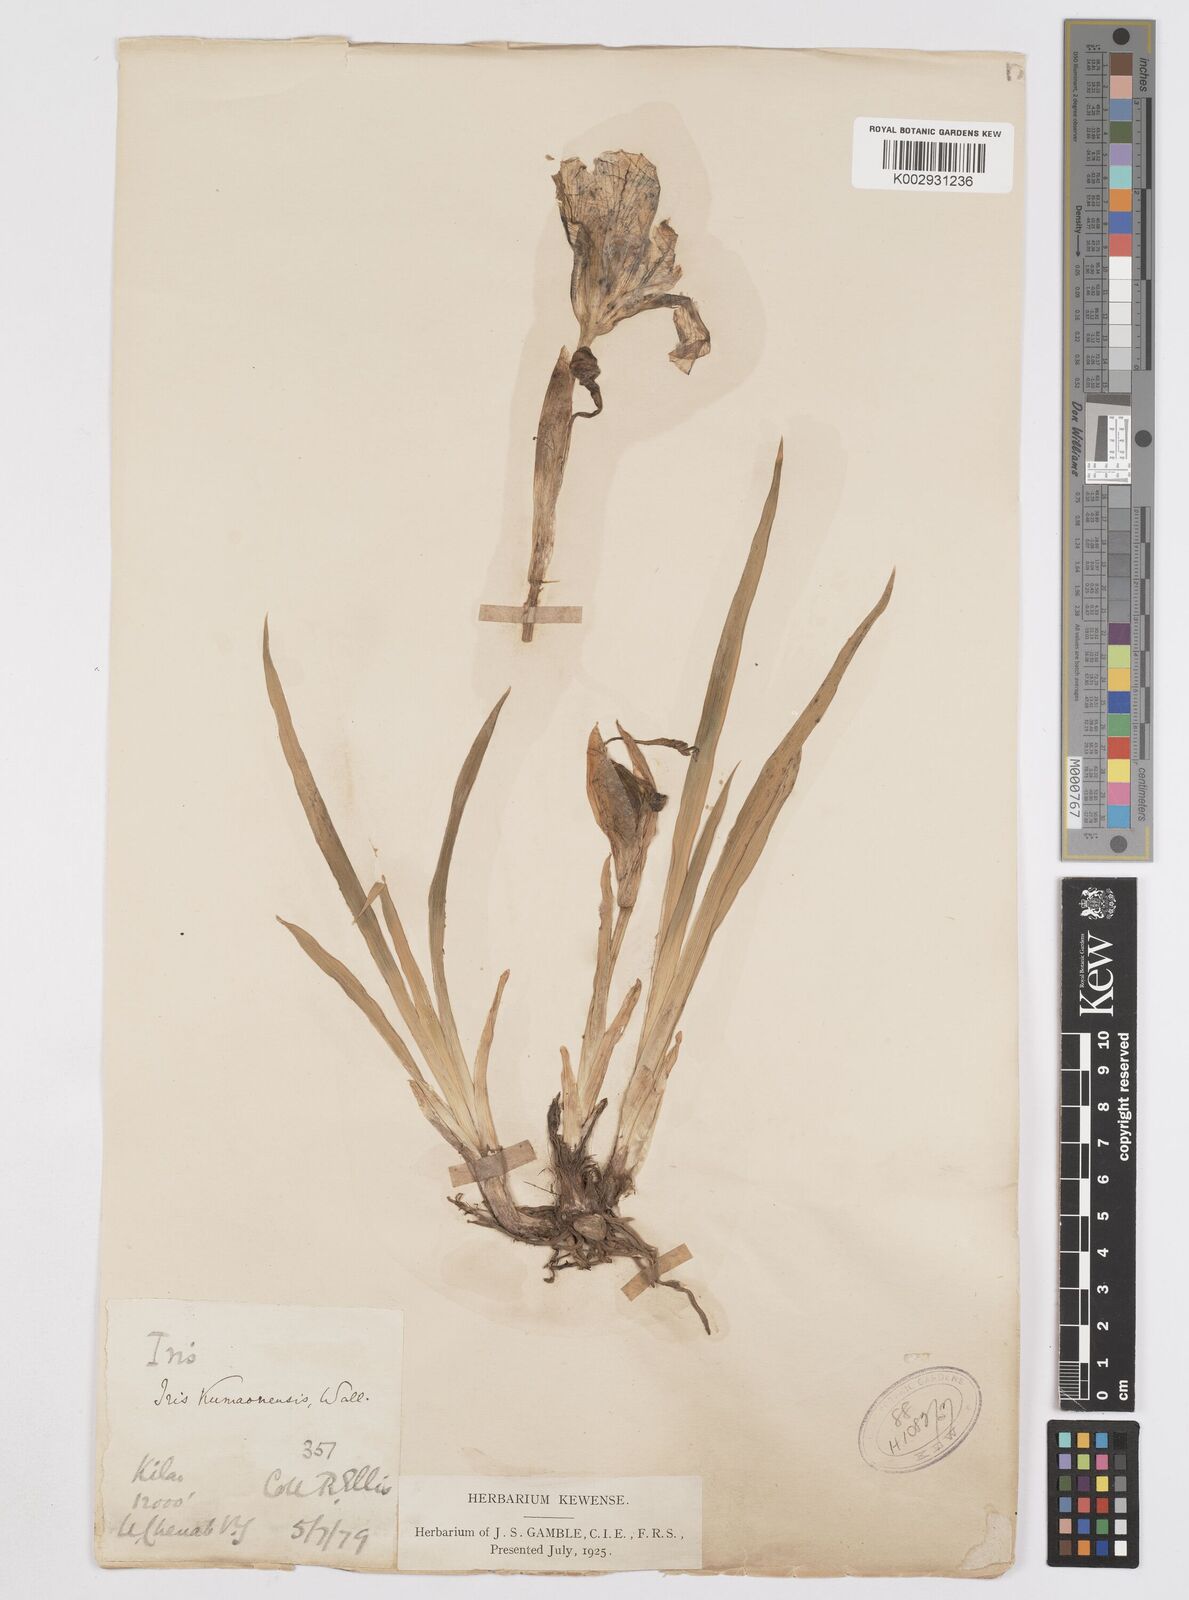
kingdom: Plantae
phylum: Tracheophyta
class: Liliopsida
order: Asparagales
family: Iridaceae
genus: Iris
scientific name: Iris hookeriana
